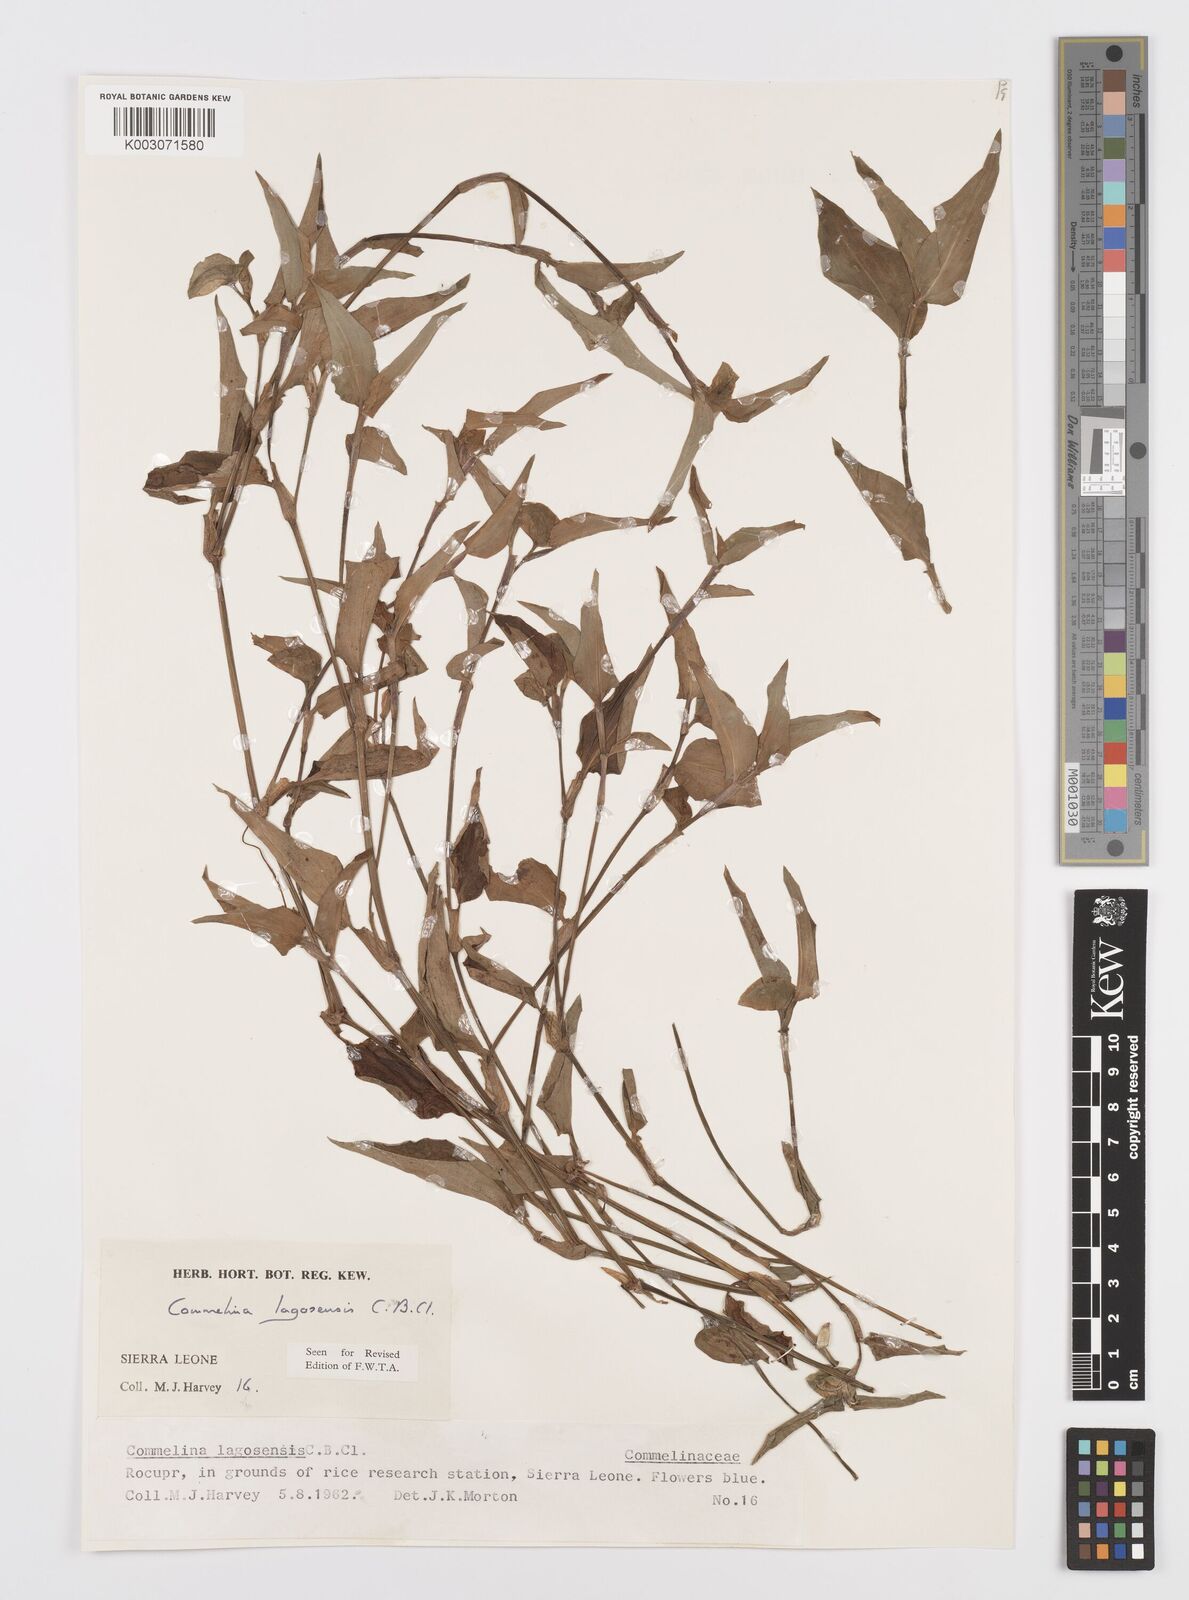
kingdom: Plantae
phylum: Tracheophyta
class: Liliopsida
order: Commelinales
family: Commelinaceae
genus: Commelina
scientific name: Commelina bracteosa
